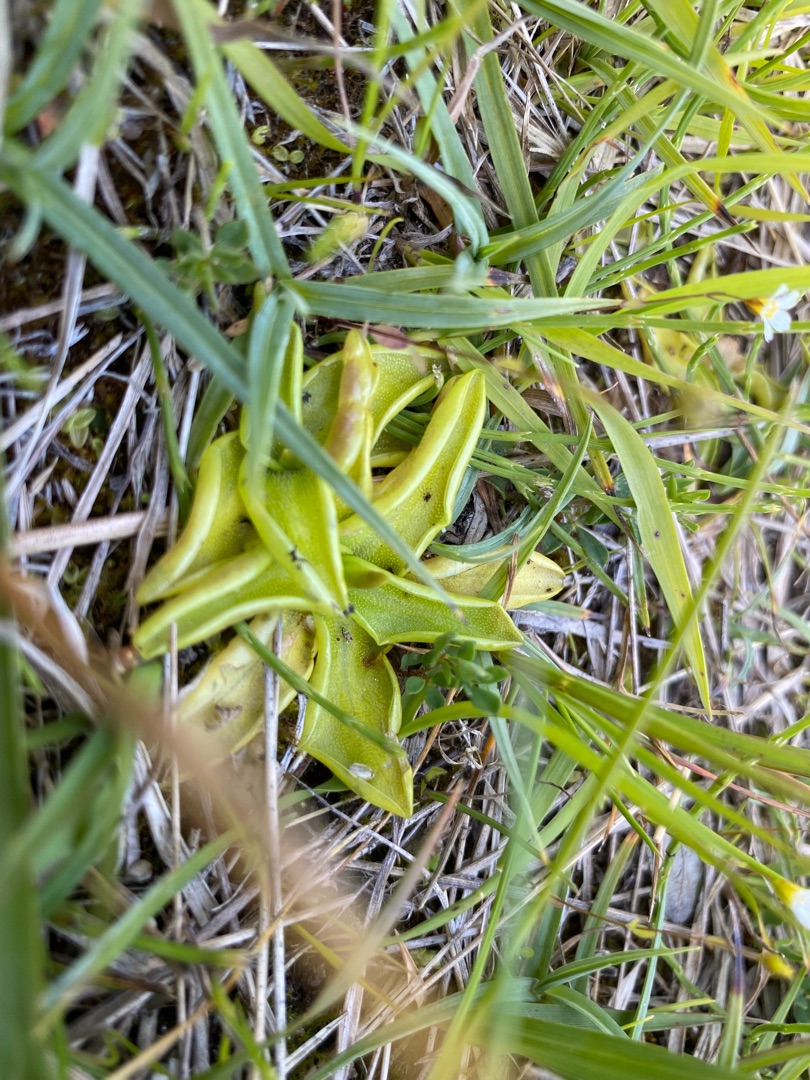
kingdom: Plantae
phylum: Tracheophyta
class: Magnoliopsida
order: Lamiales
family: Lentibulariaceae
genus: Pinguicula
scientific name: Pinguicula vulgaris
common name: Vibefedt
